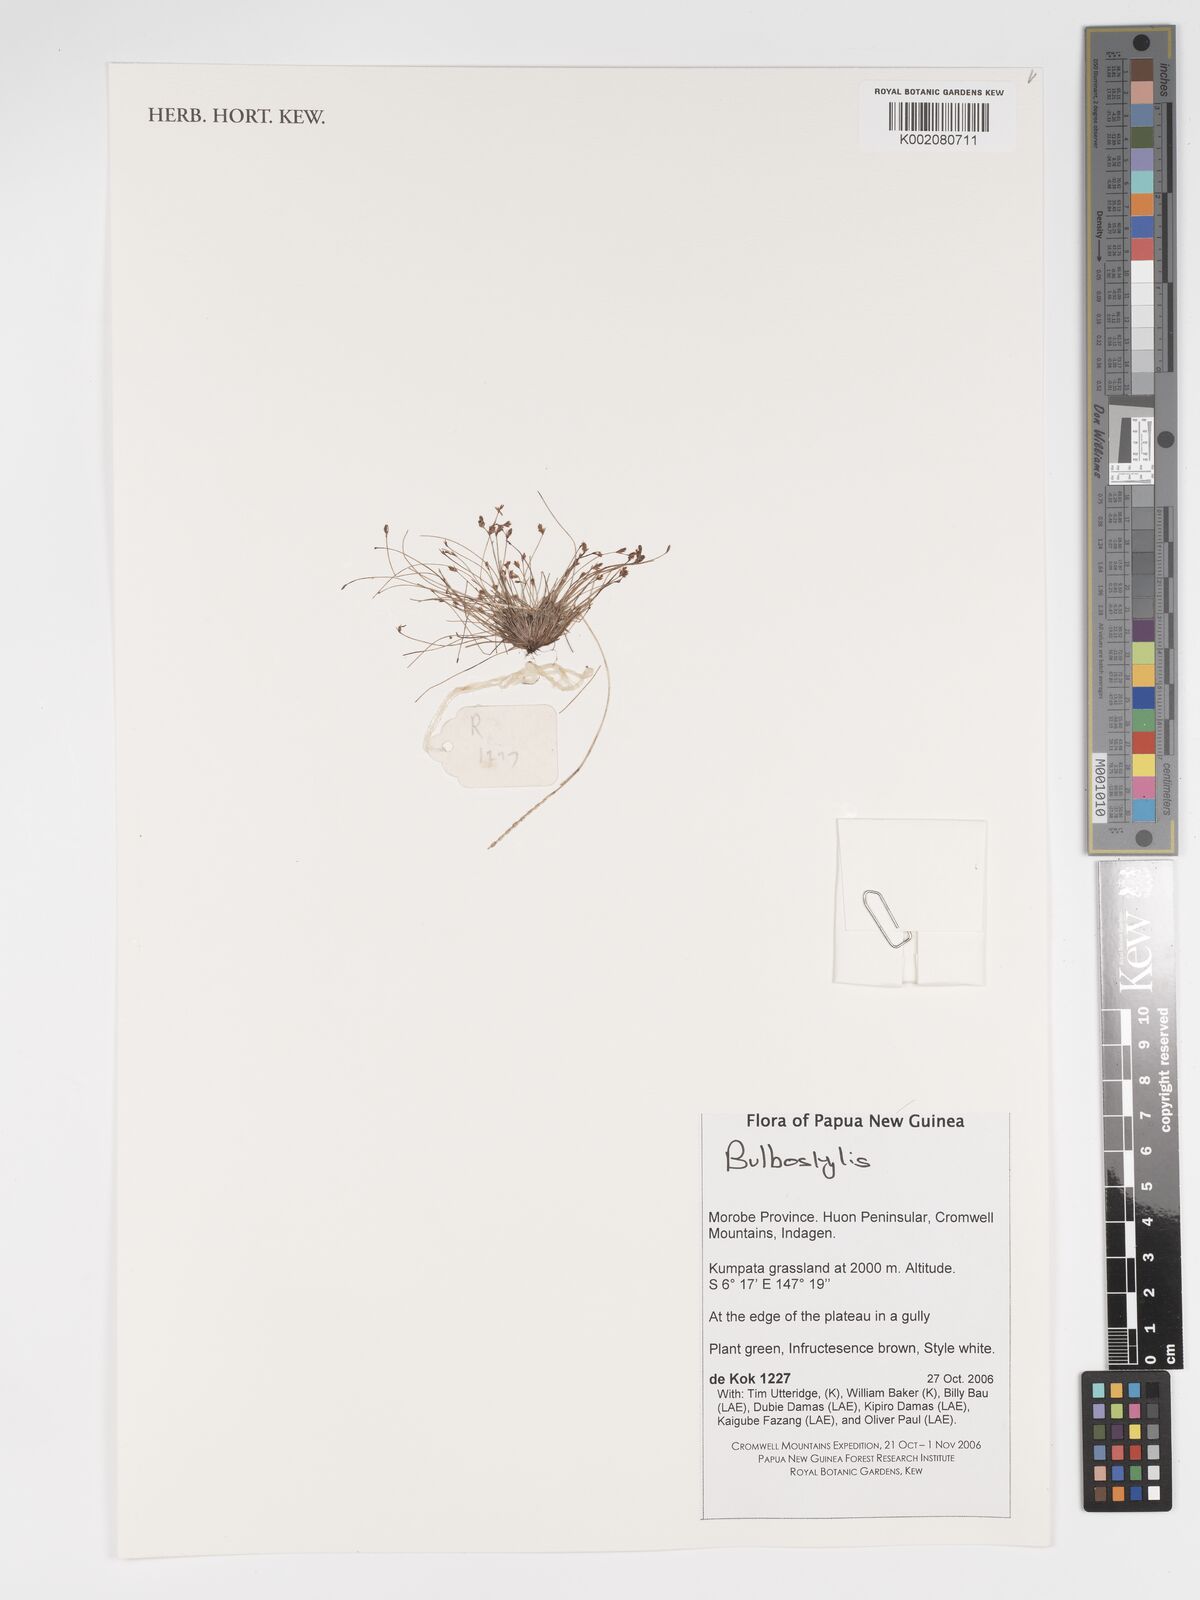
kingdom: Plantae
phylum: Tracheophyta
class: Magnoliopsida
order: Asterales
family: Asteraceae
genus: Bulbostylis
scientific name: Bulbostylis
